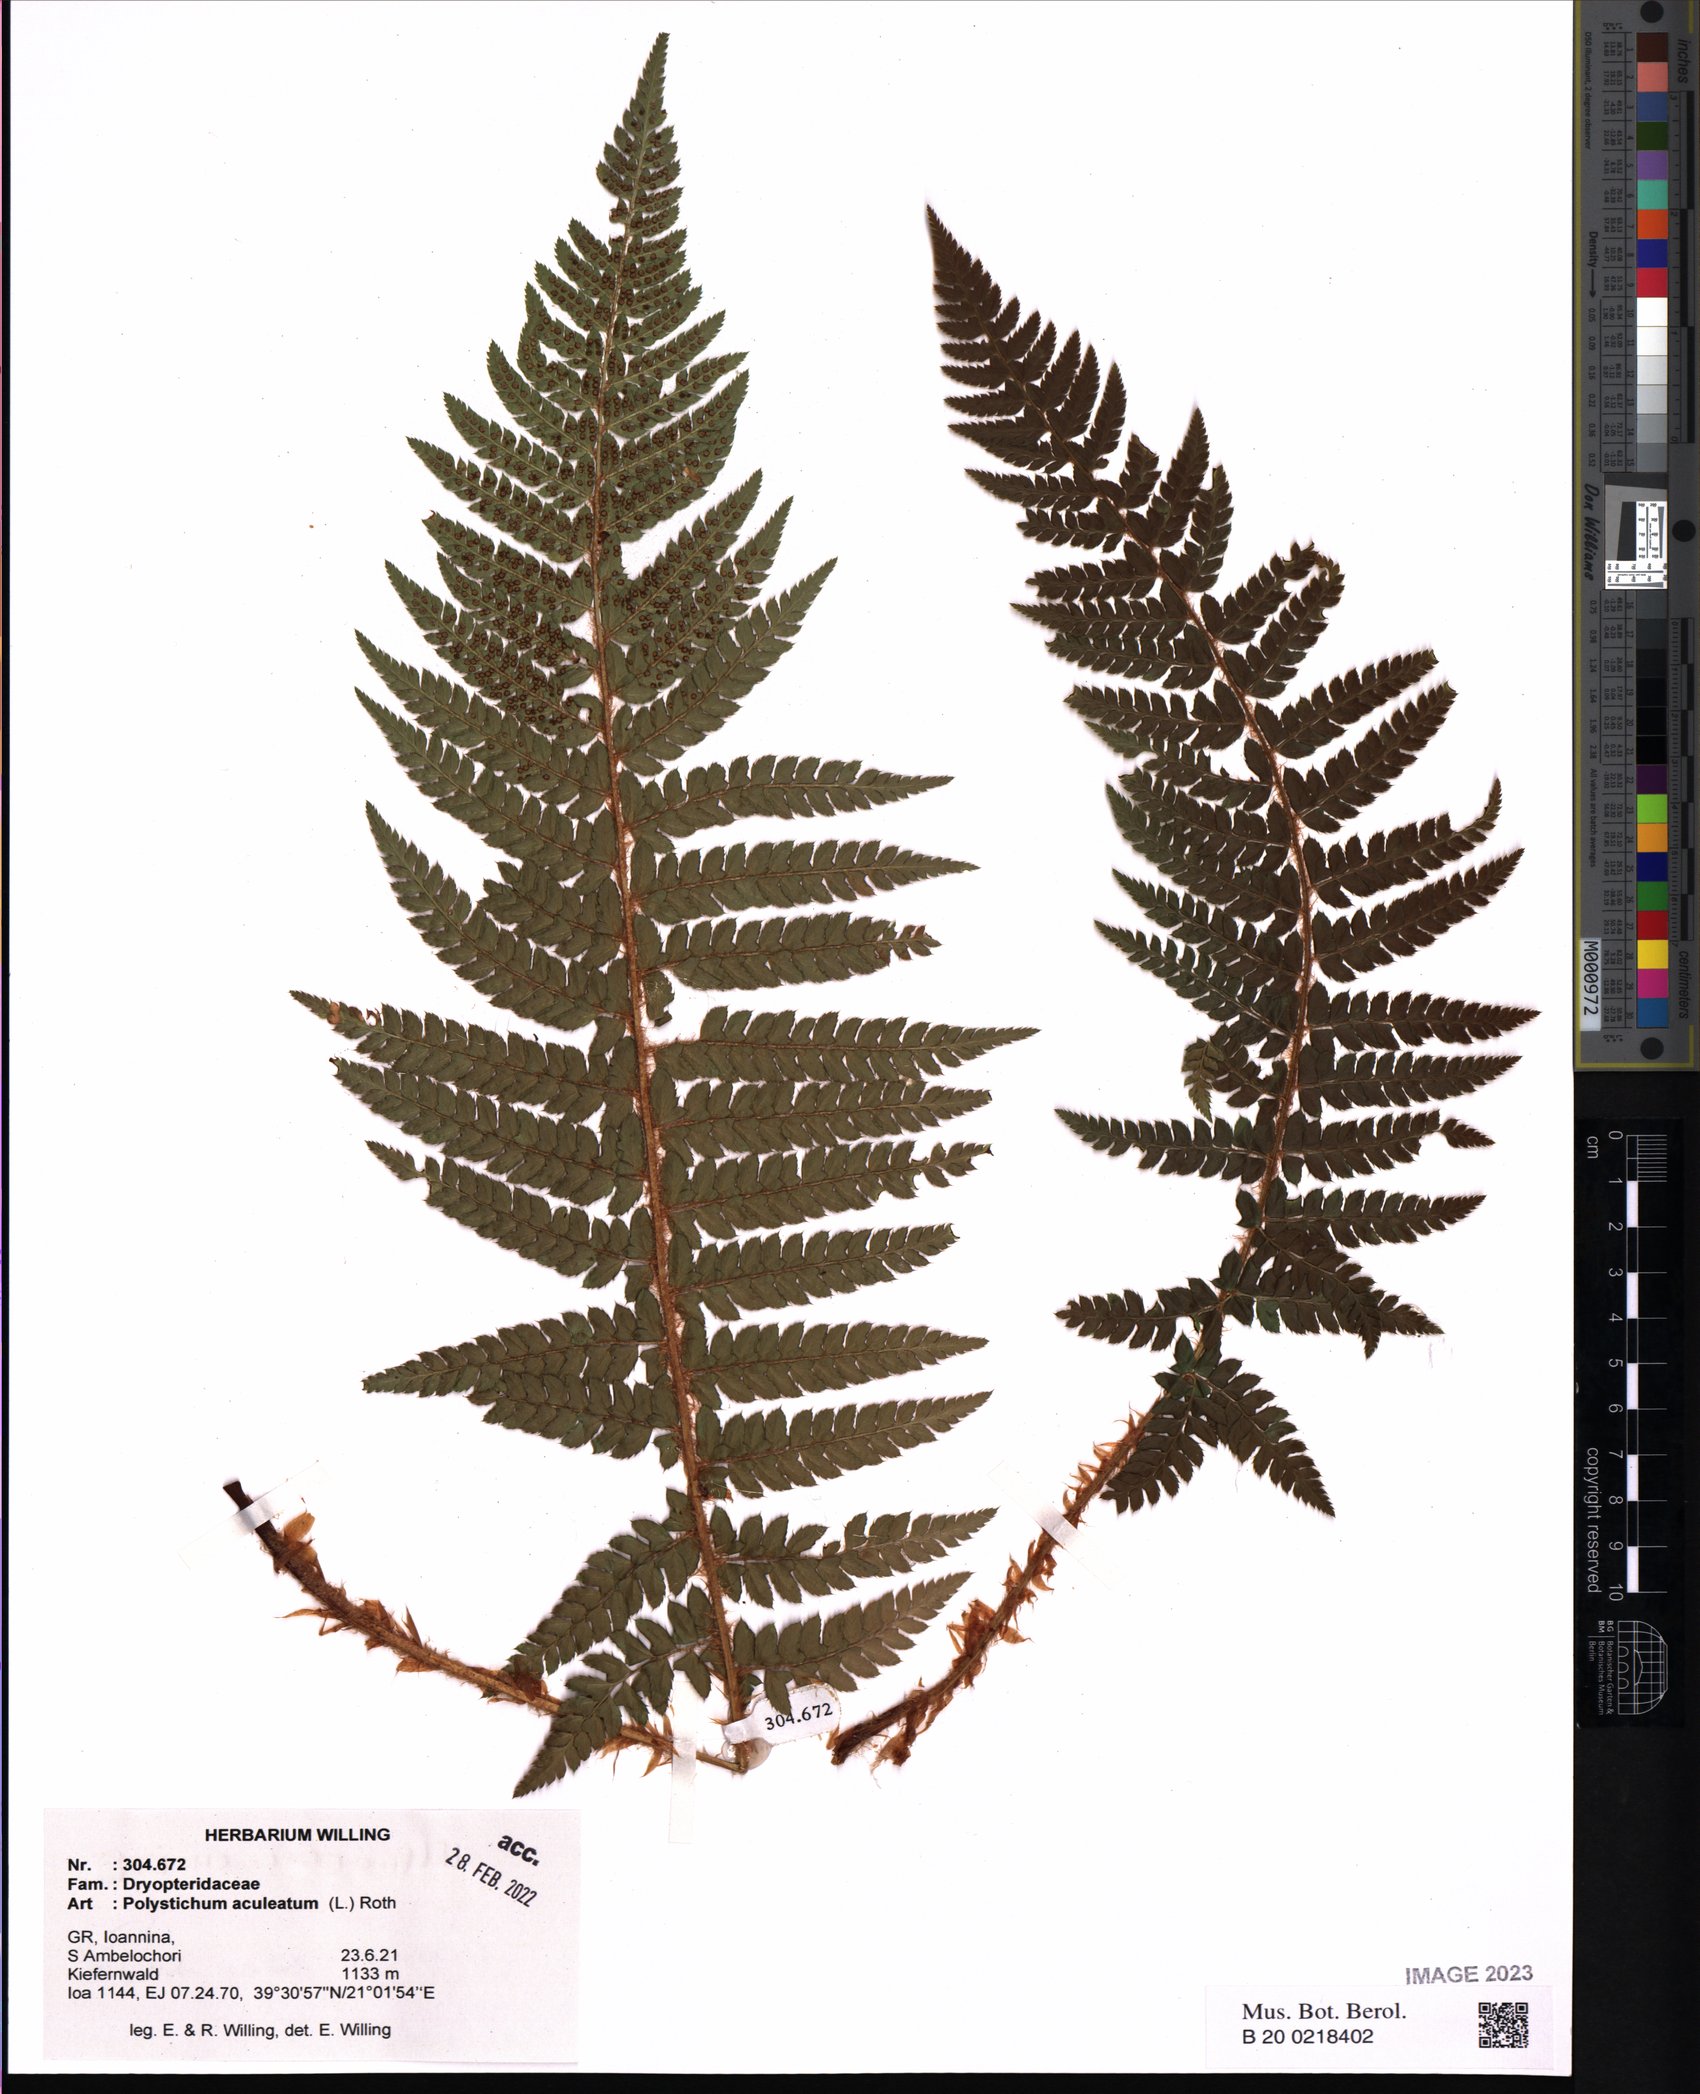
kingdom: Plantae
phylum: Tracheophyta
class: Polypodiopsida
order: Polypodiales
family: Dryopteridaceae
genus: Polystichum
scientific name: Polystichum aculeatum
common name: Hard shield-fern
